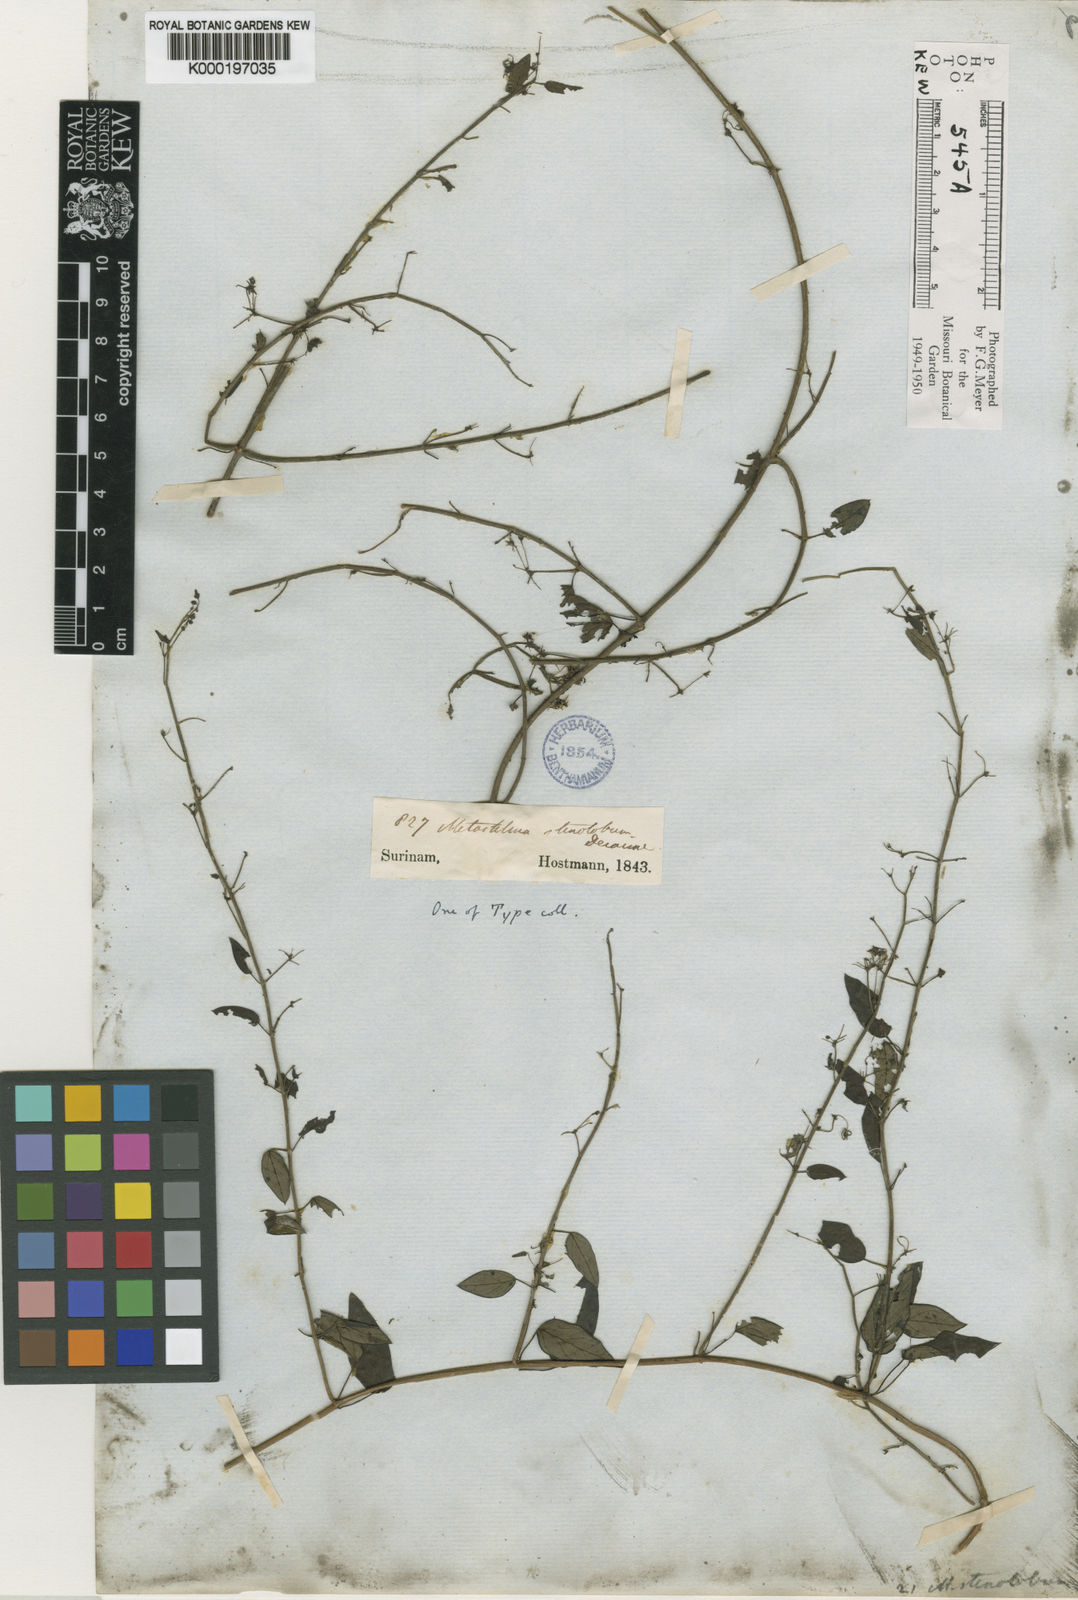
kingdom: Plantae
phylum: Tracheophyta
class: Magnoliopsida
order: Gentianales
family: Apocynaceae
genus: Tassadia
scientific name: Tassadia
